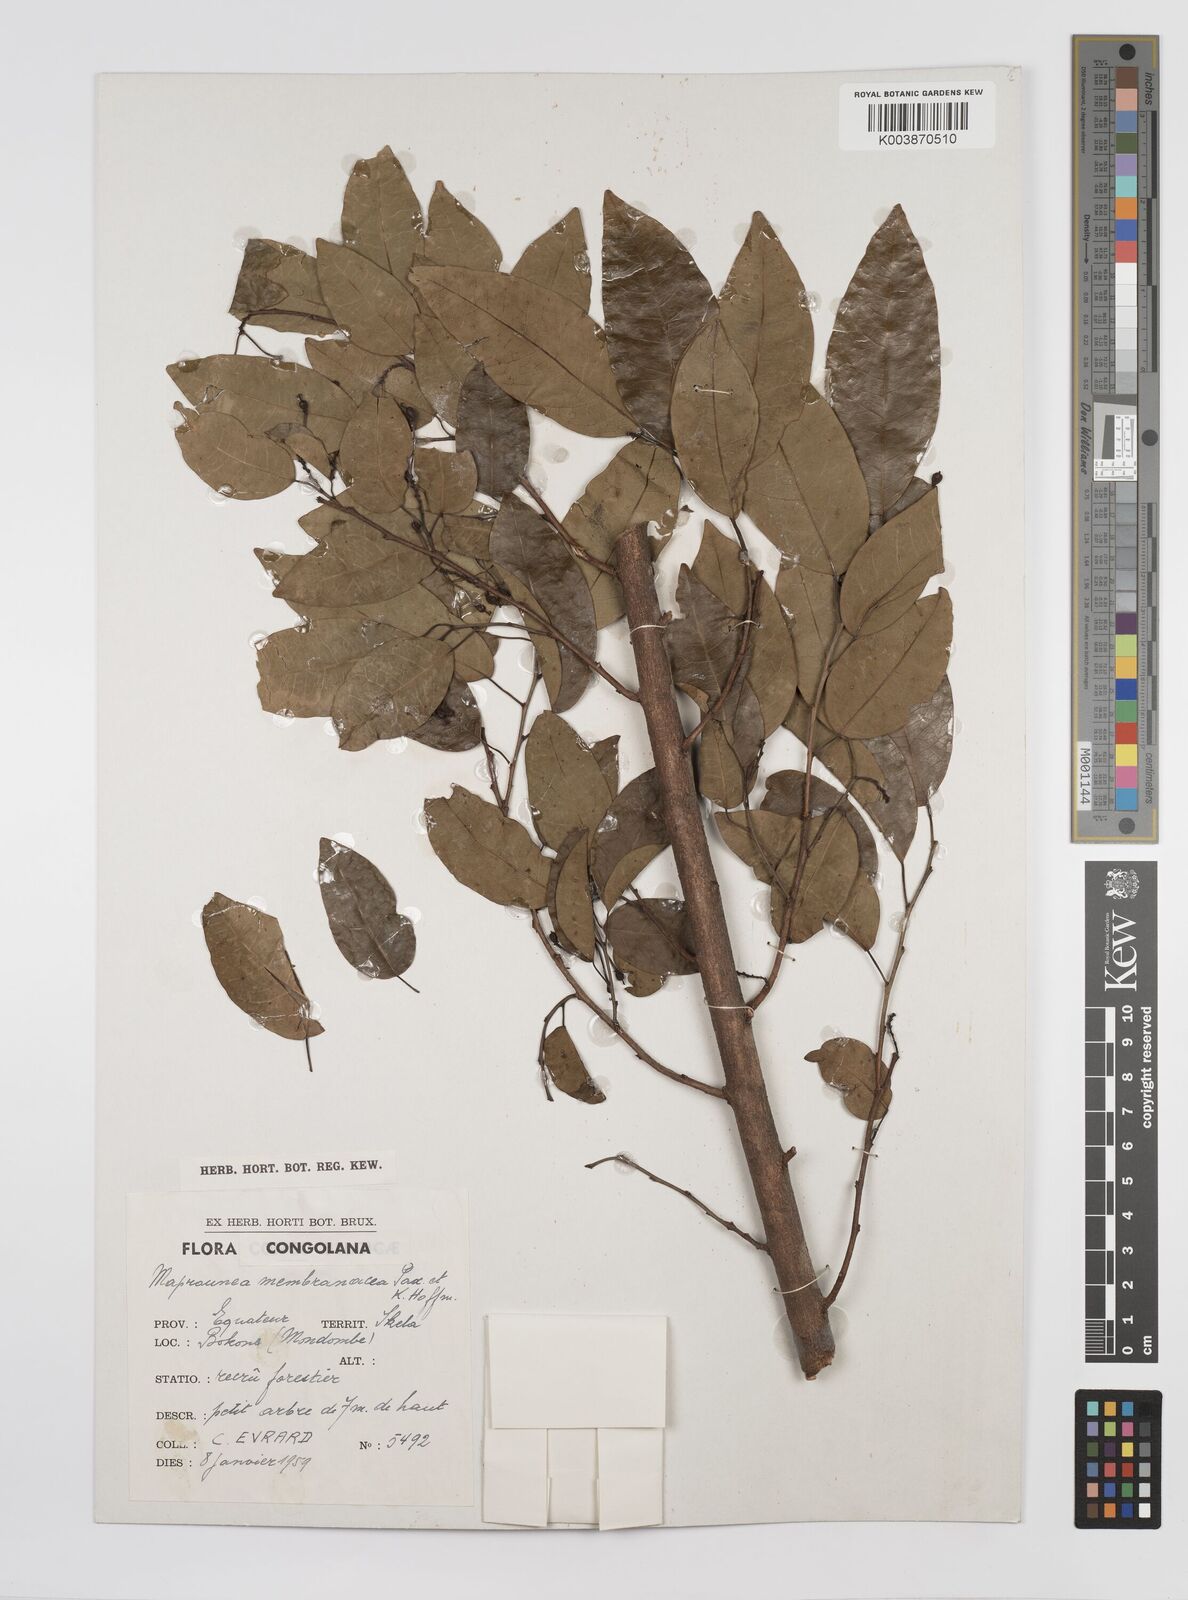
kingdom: Plantae
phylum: Tracheophyta
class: Magnoliopsida
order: Malpighiales
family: Euphorbiaceae
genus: Maprounea
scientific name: Maprounea membranacea
